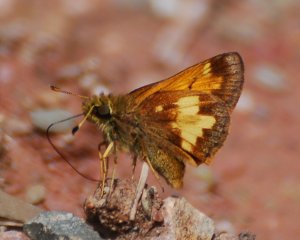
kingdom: Animalia
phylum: Arthropoda
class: Insecta
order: Lepidoptera
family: Hesperiidae
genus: Lon
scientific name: Lon hobomok
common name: Hobomok Skipper
